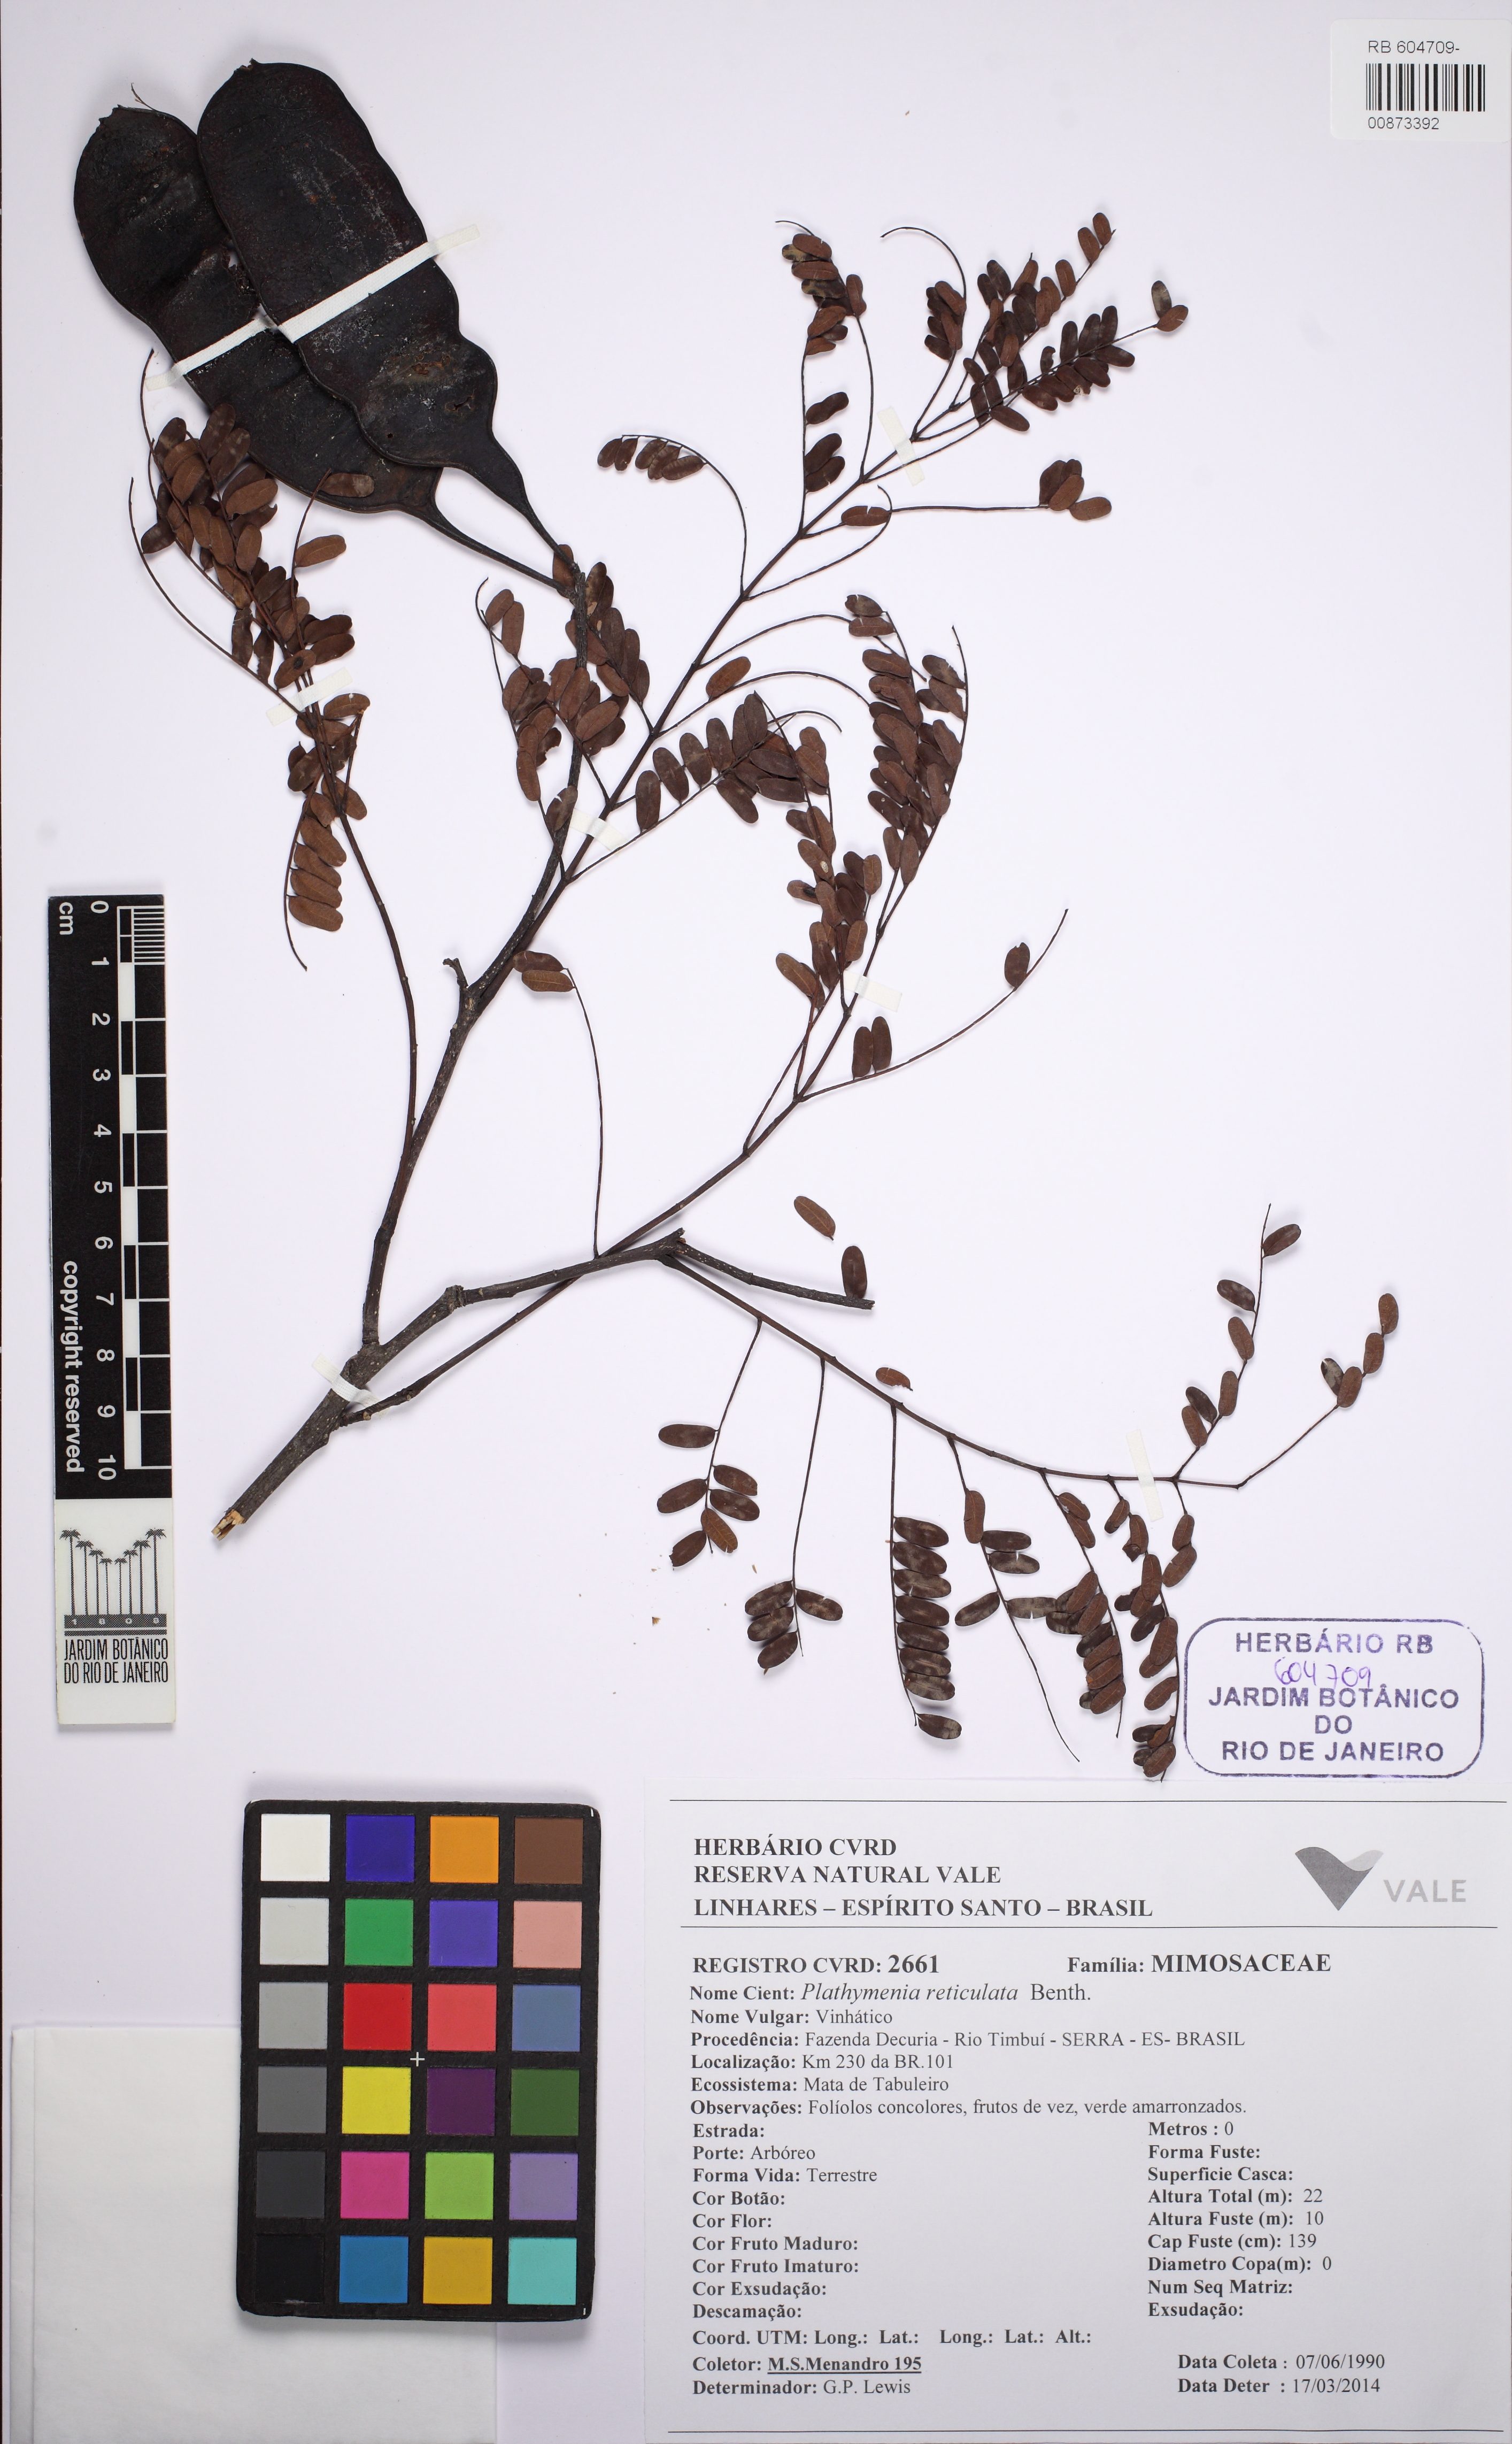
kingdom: Plantae
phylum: Tracheophyta
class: Magnoliopsida
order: Fabales
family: Fabaceae
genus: Plathymenia
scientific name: Plathymenia reticulata
